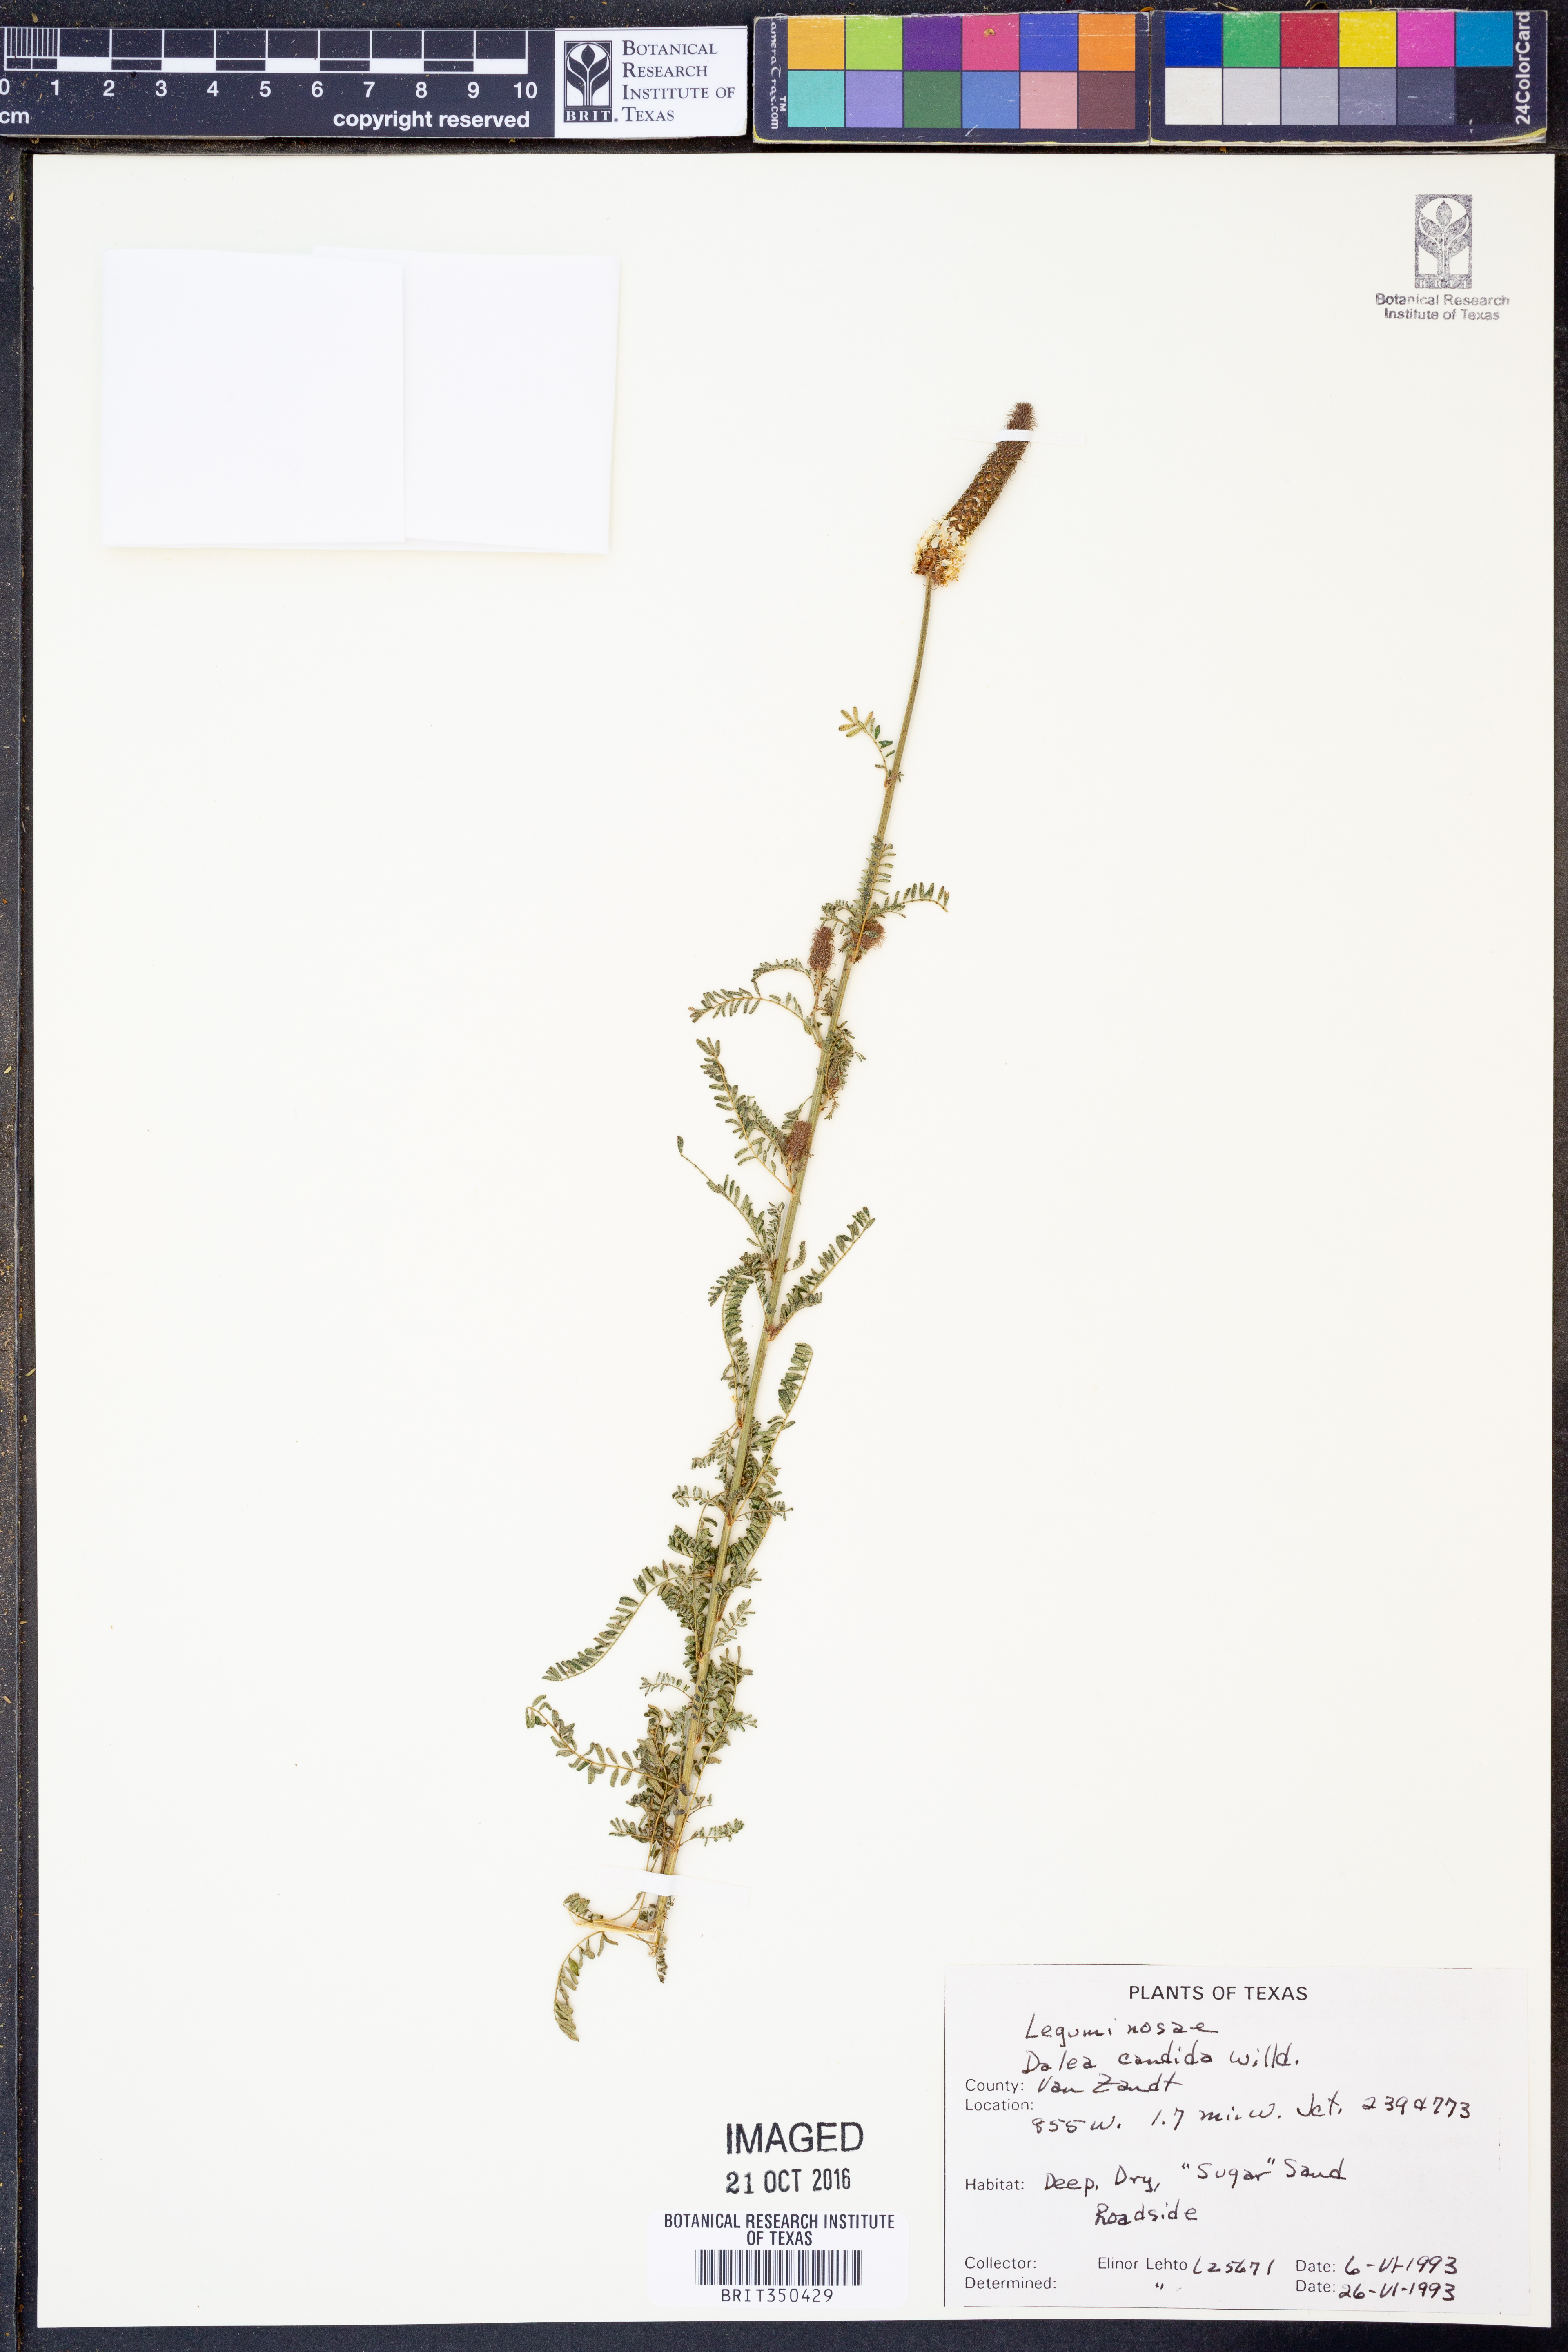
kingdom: Plantae
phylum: Tracheophyta
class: Magnoliopsida
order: Fabales
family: Fabaceae
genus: Dalea
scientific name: Dalea candida
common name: White prairie-clover
